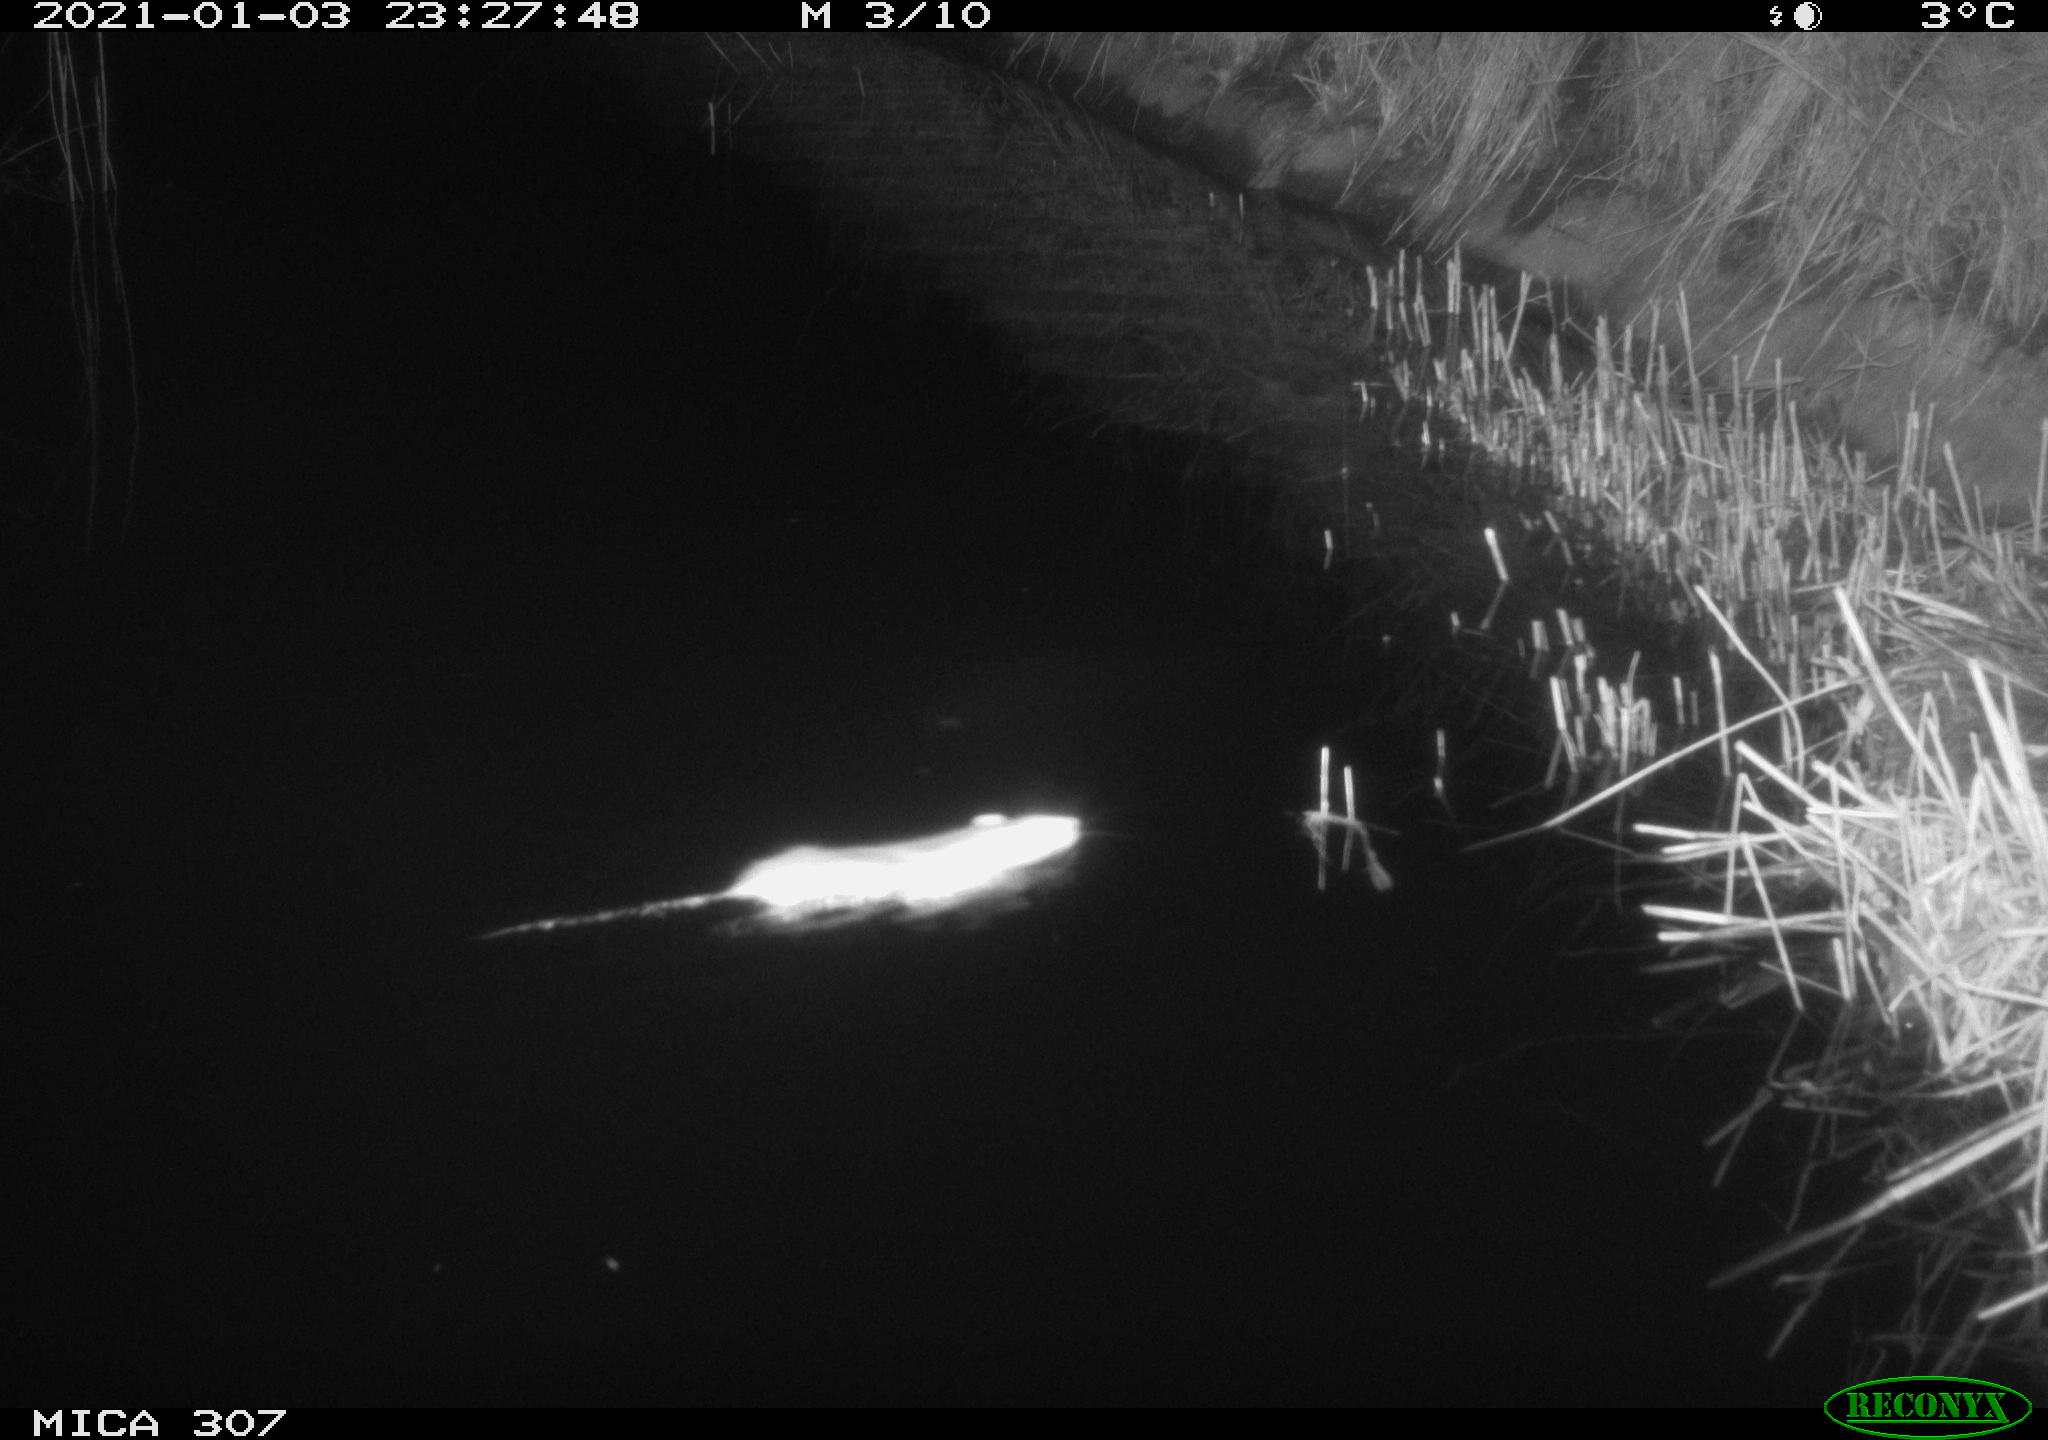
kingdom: Animalia
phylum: Chordata
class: Mammalia
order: Rodentia
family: Muridae
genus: Rattus
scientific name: Rattus norvegicus
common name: Brown rat
